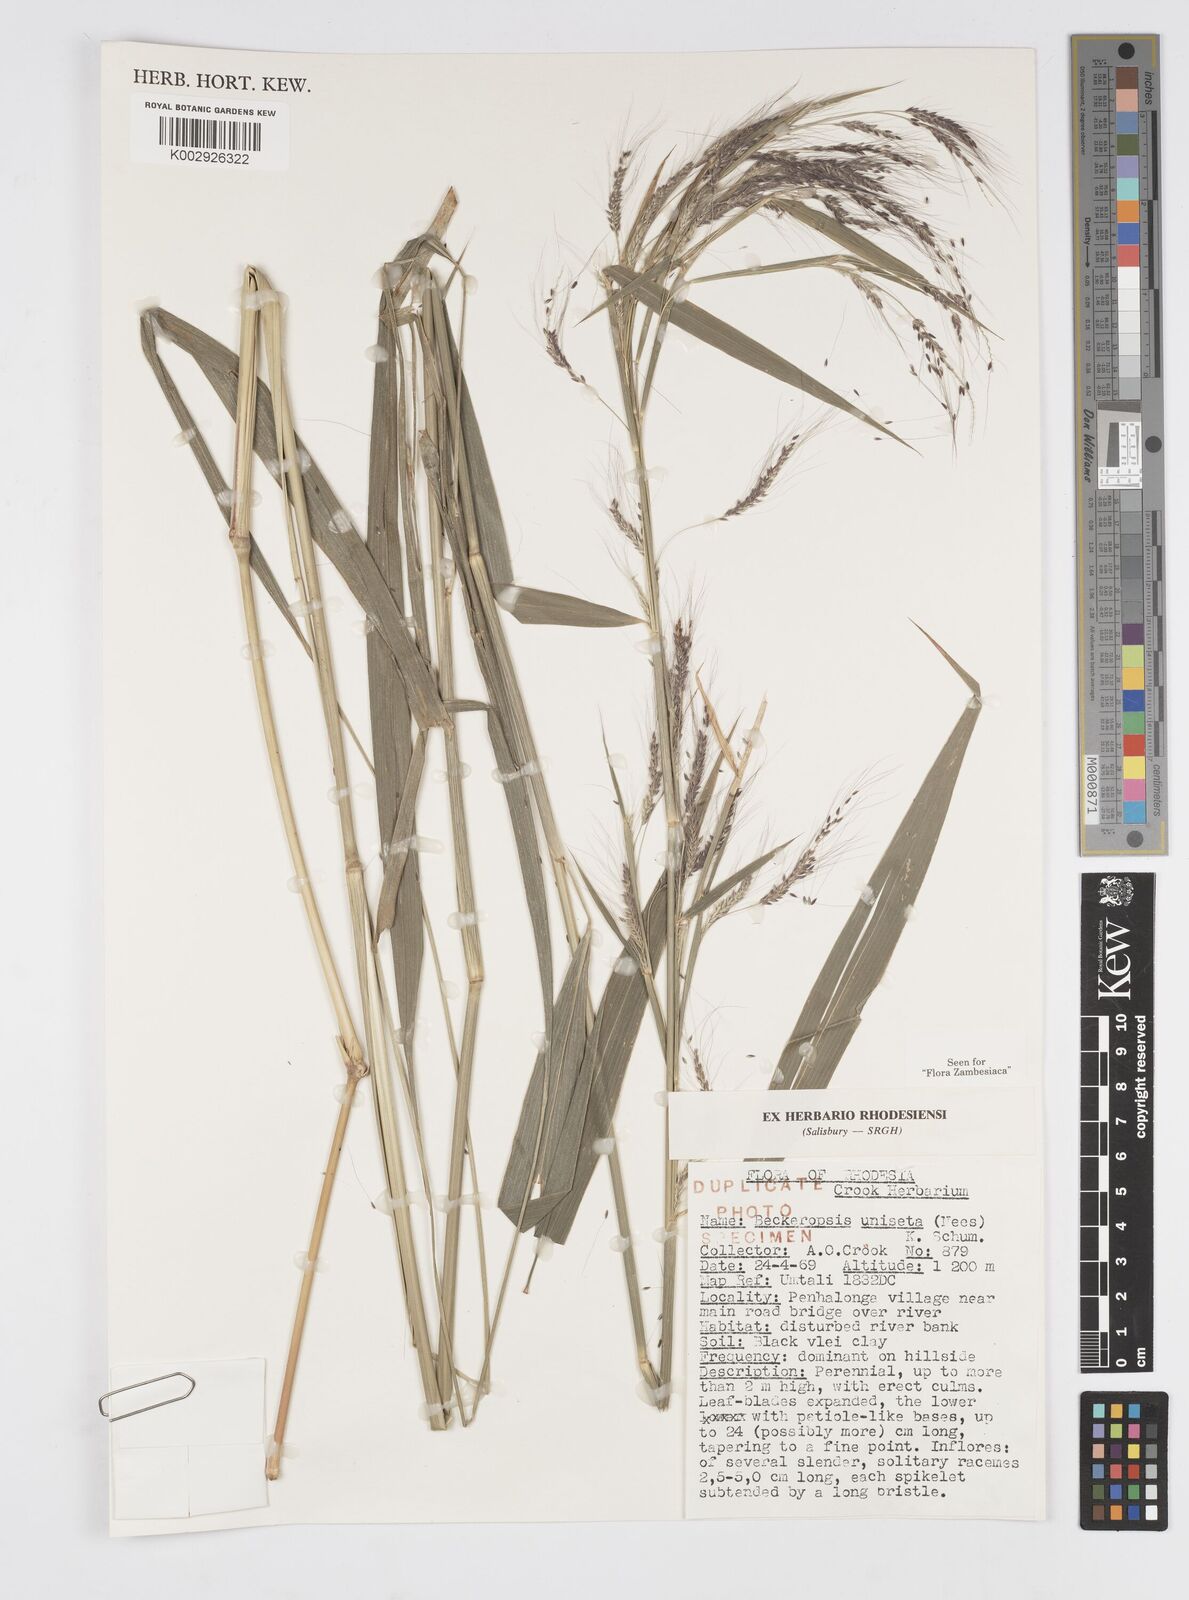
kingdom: Plantae
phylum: Tracheophyta
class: Liliopsida
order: Poales
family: Poaceae
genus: Cenchrus
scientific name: Cenchrus unisetus
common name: Natal grass
